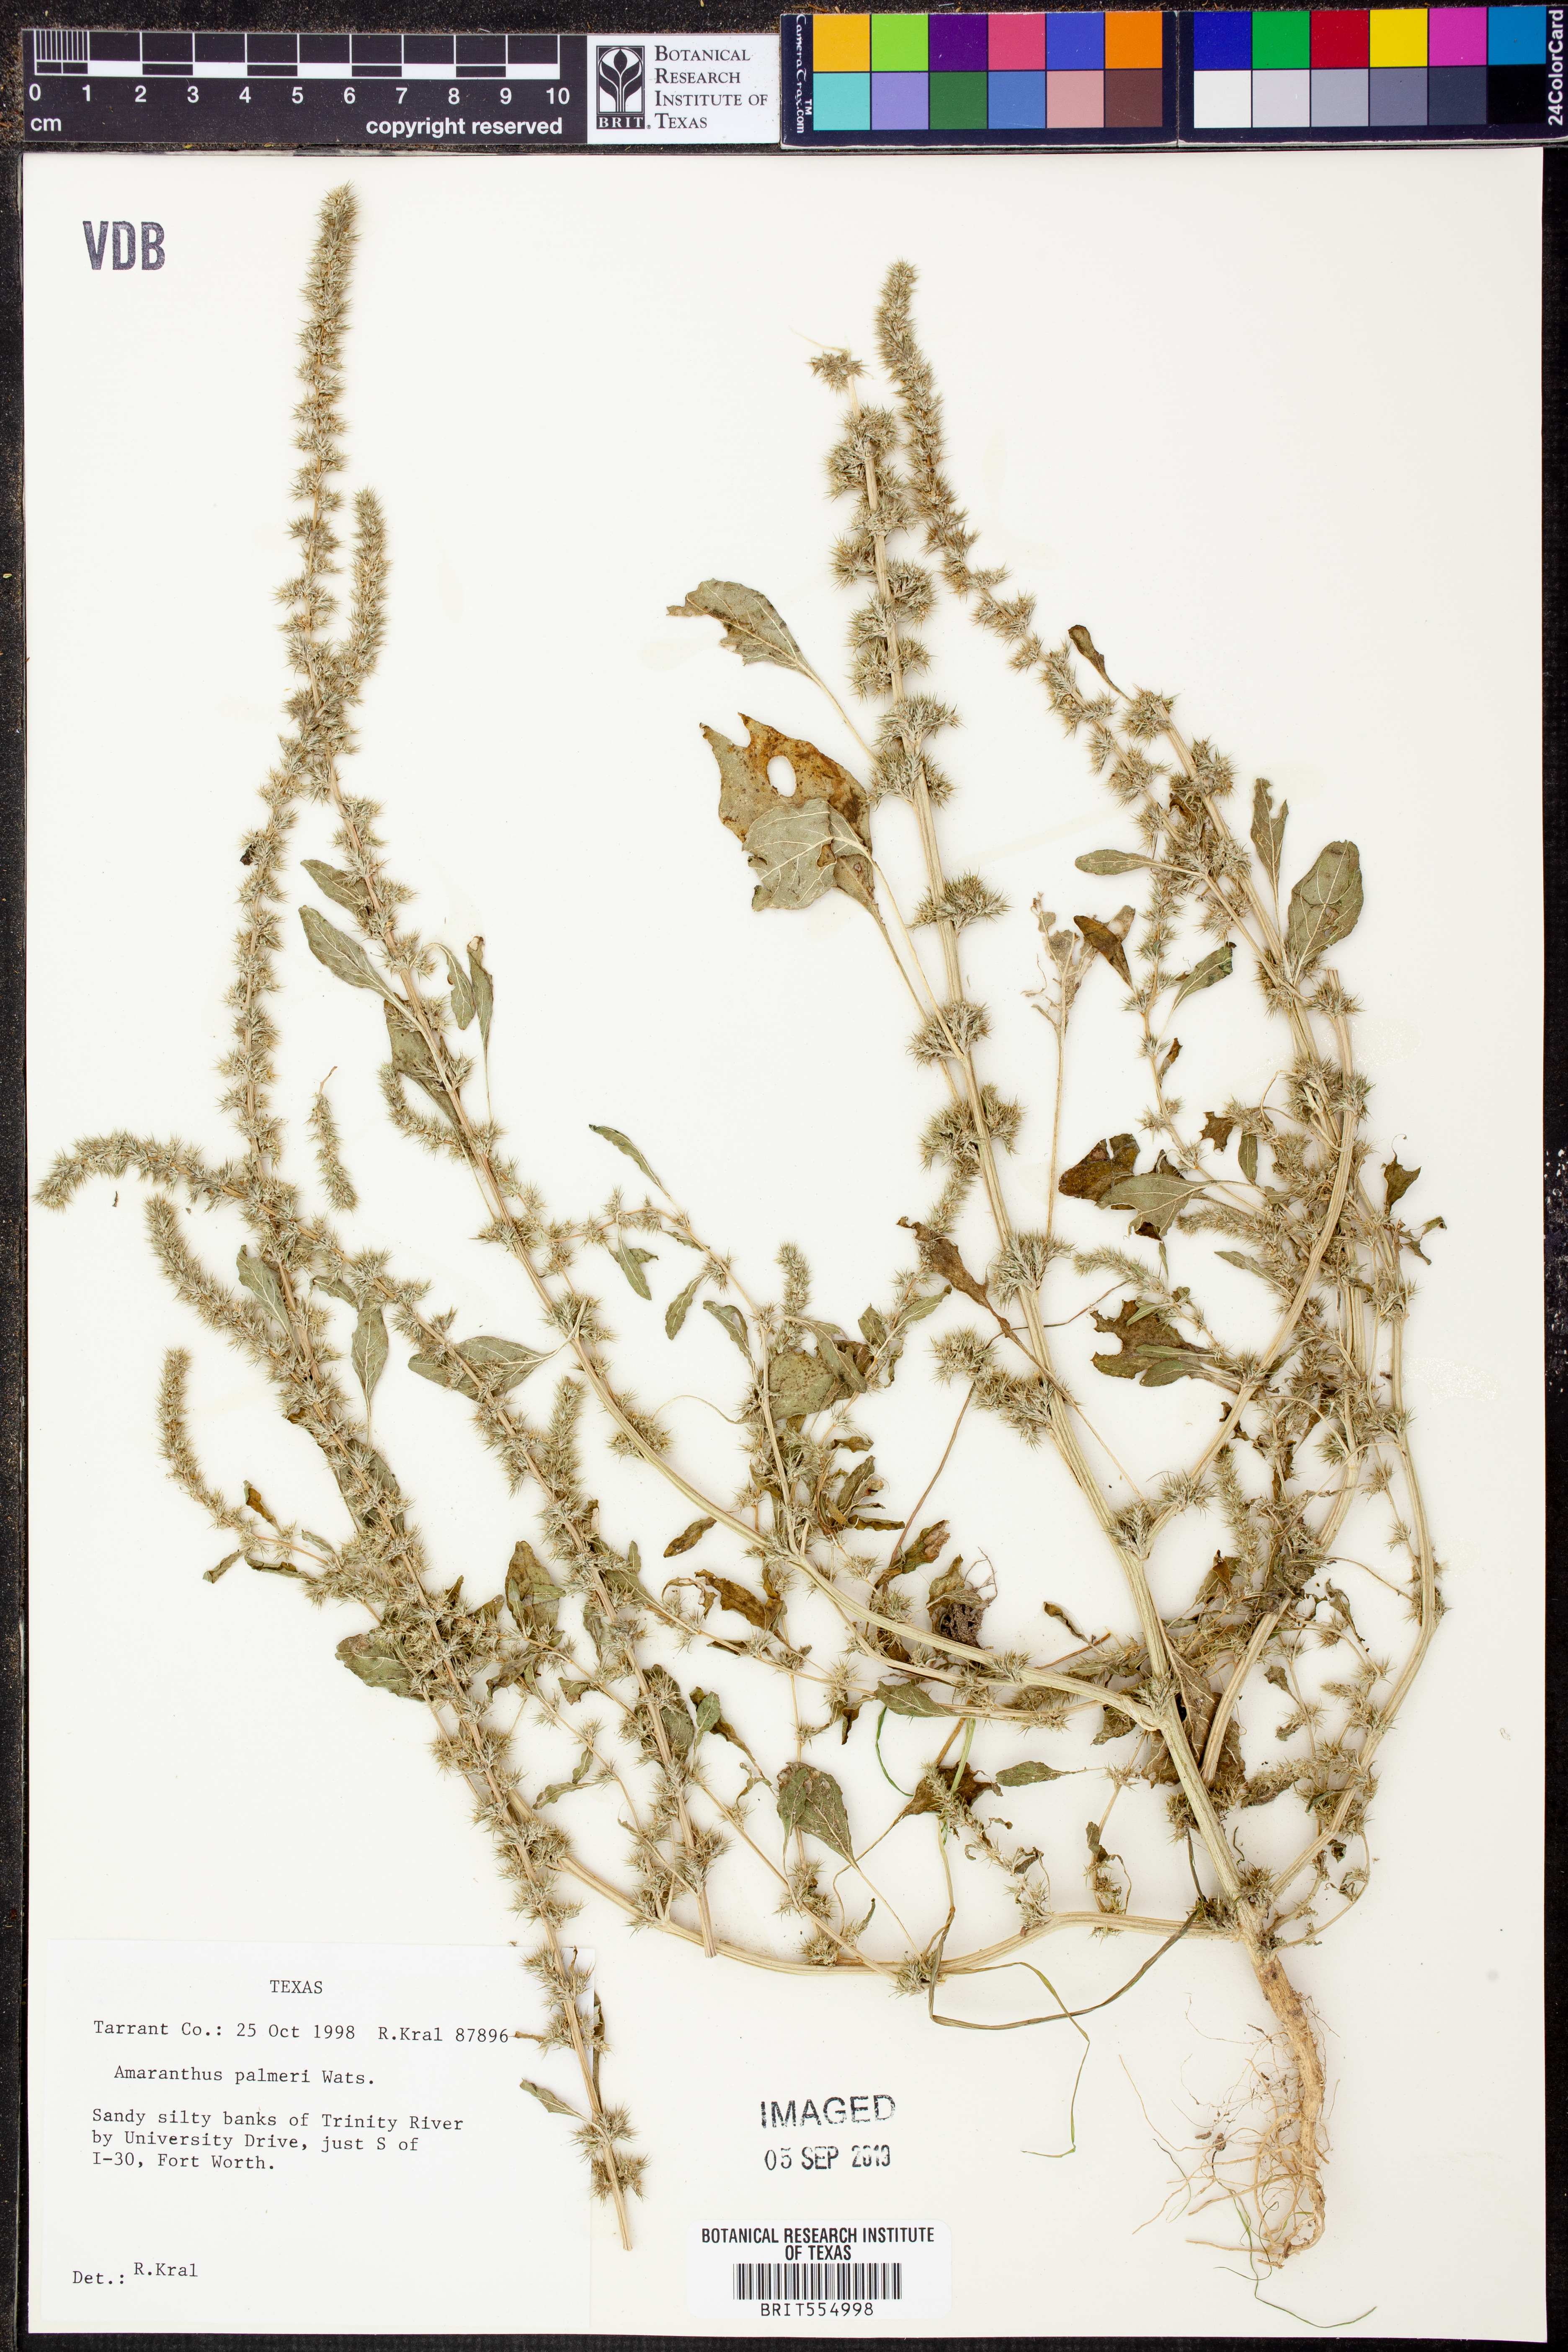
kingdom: Plantae
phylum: Tracheophyta
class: Magnoliopsida
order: Caryophyllales
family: Amaranthaceae
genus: Amaranthus
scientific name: Amaranthus palmeri
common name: Dioecious amaranth
